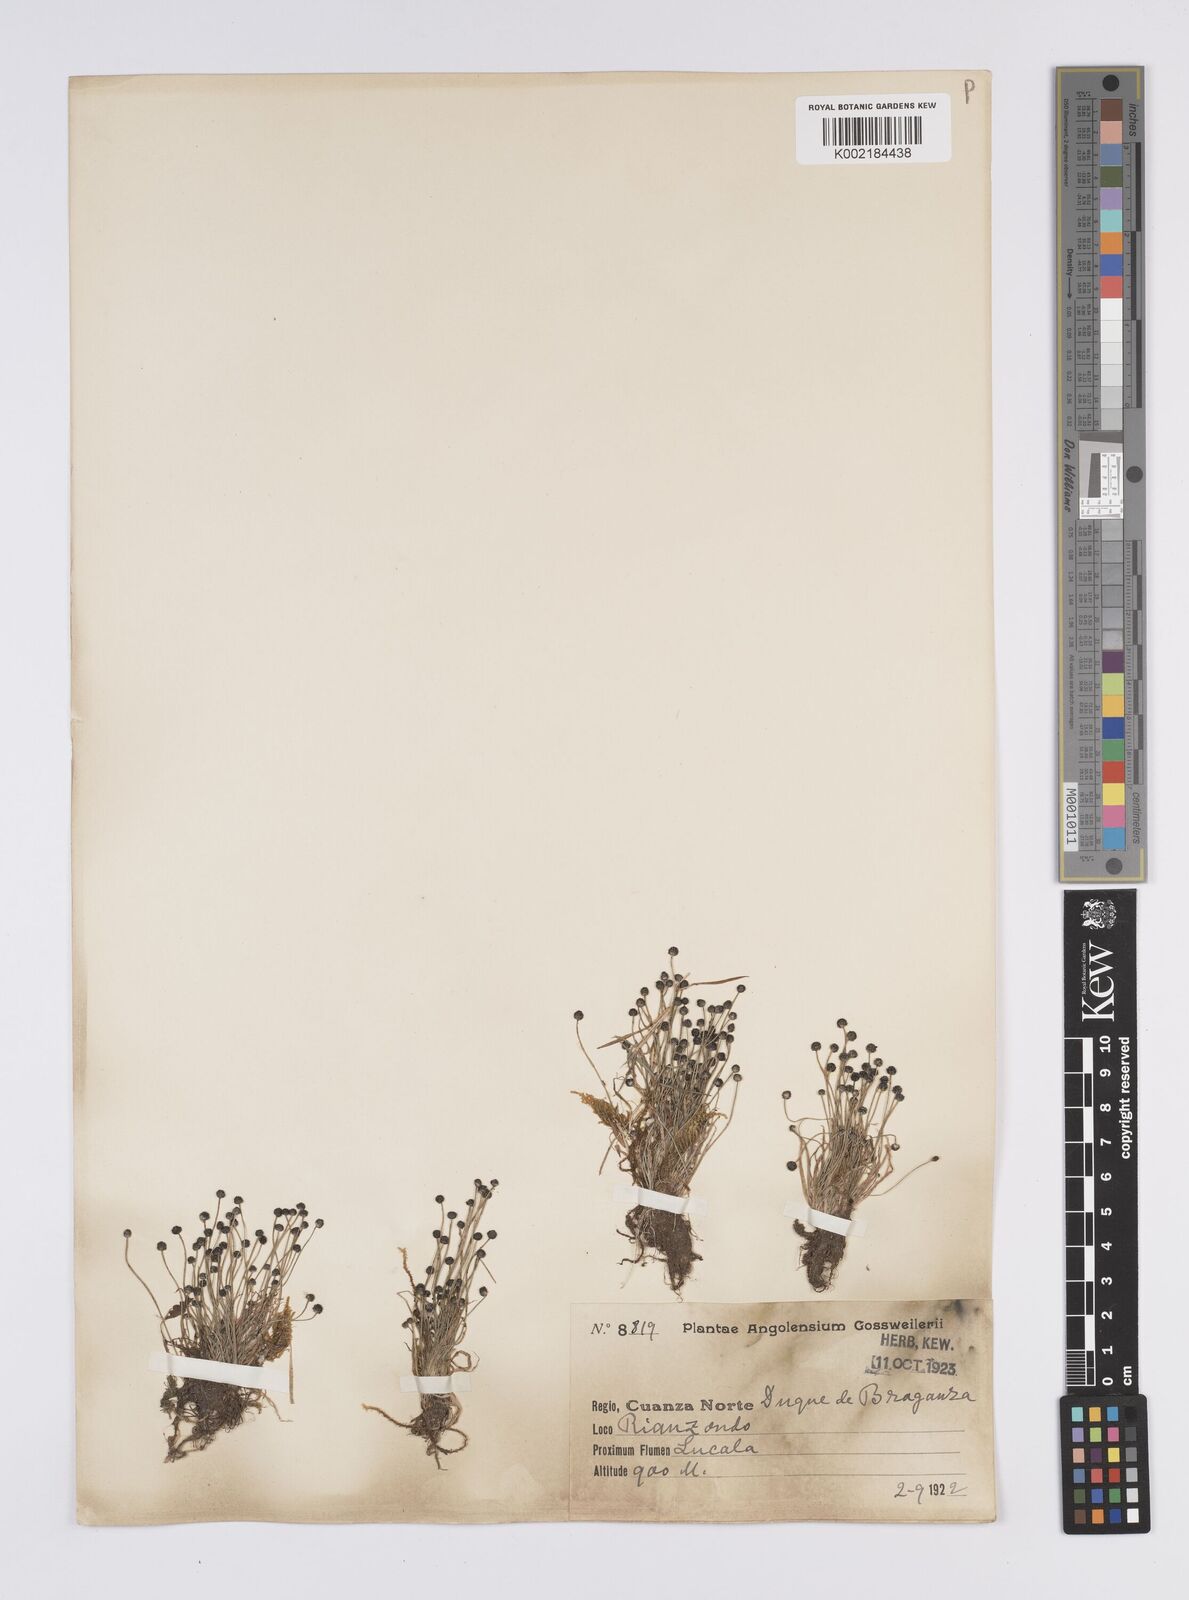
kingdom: Plantae
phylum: Tracheophyta
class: Liliopsida
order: Poales
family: Eriocaulaceae
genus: Eriocaulon
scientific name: Eriocaulon
